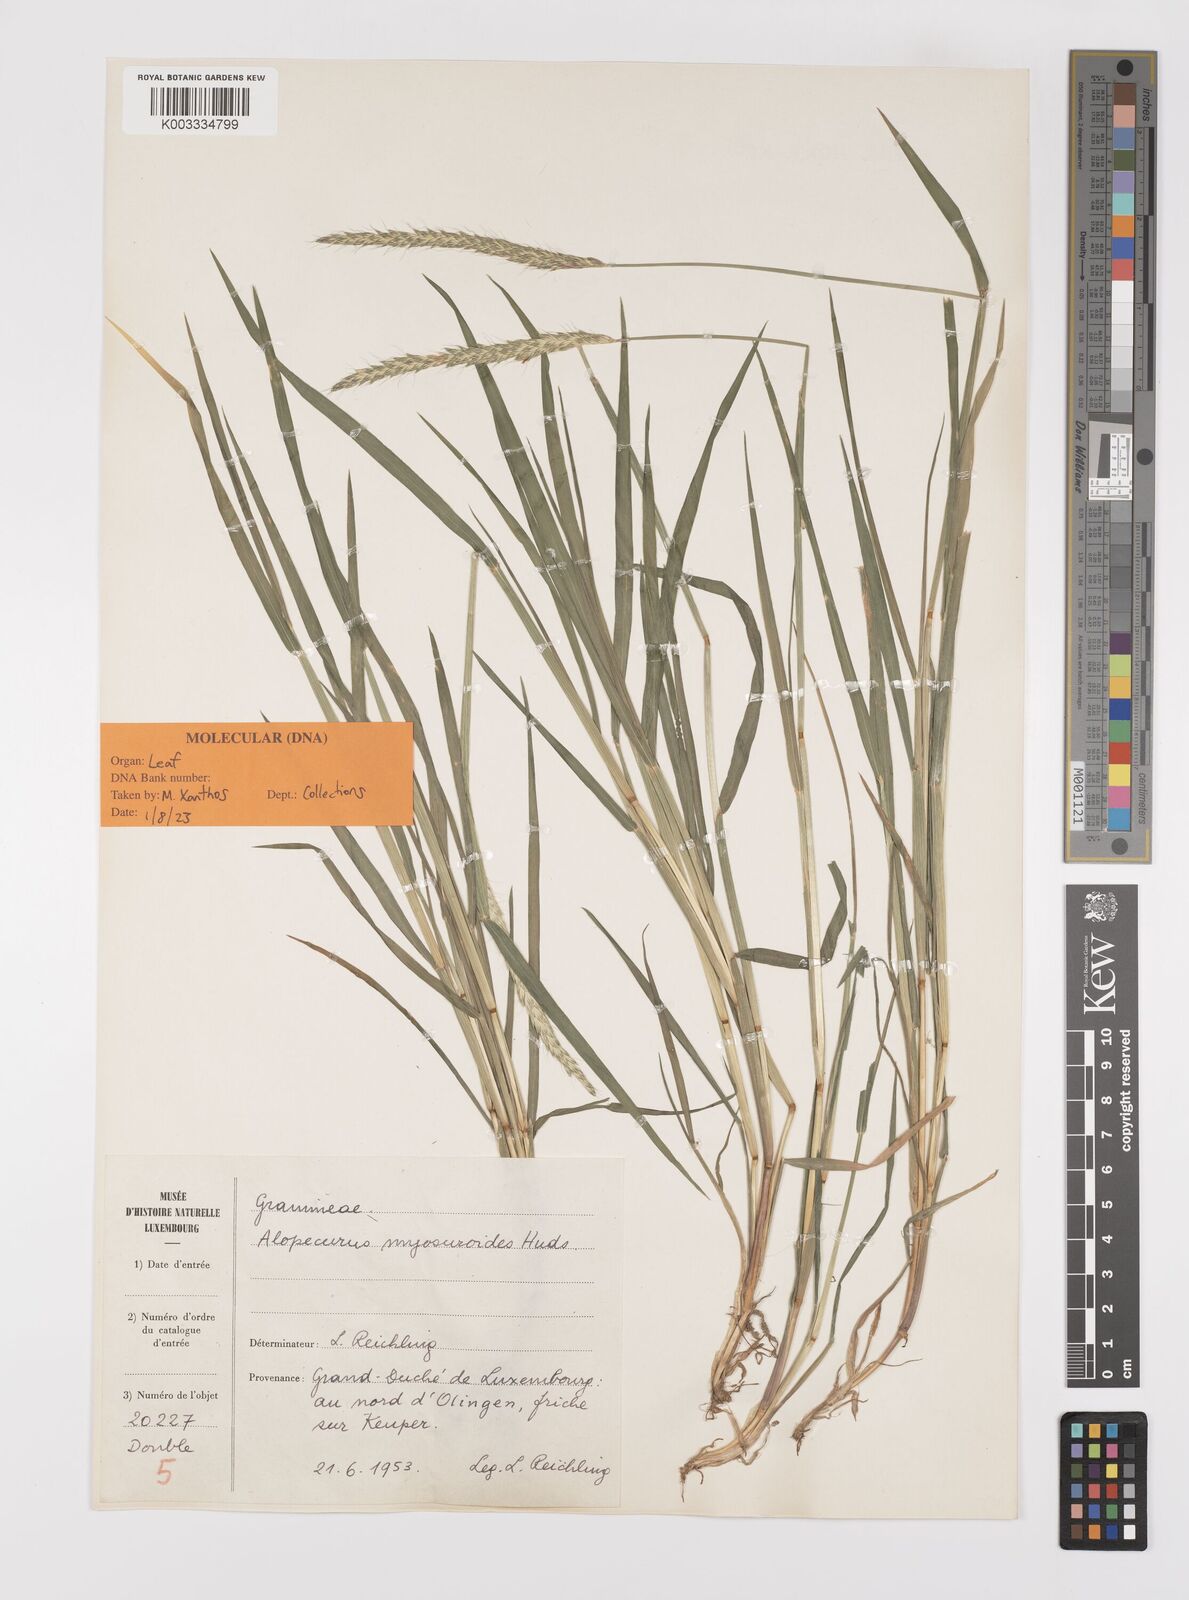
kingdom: Plantae
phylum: Tracheophyta
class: Liliopsida
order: Poales
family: Poaceae
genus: Alopecurus
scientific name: Alopecurus myosuroides
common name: Black-grass
